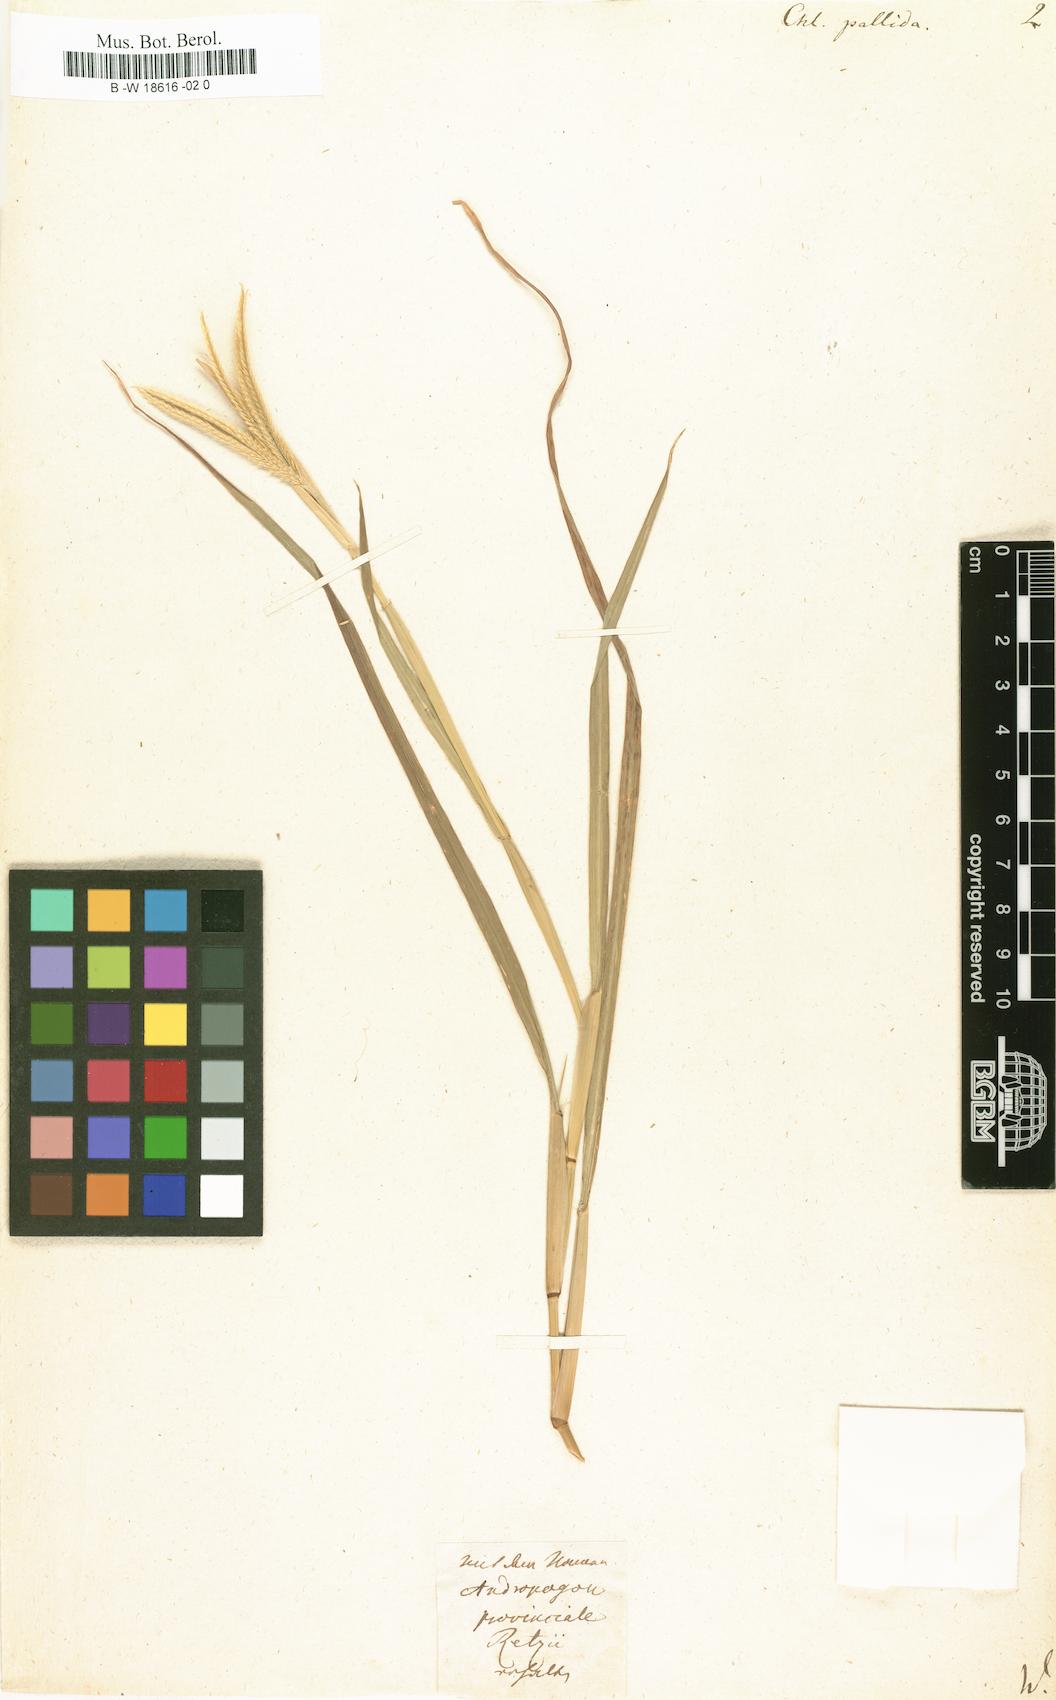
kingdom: Plantae
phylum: Tracheophyta
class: Liliopsida
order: Poales
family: Poaceae
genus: Chloris
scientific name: Chloris radiata
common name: Radiate fingergrass
